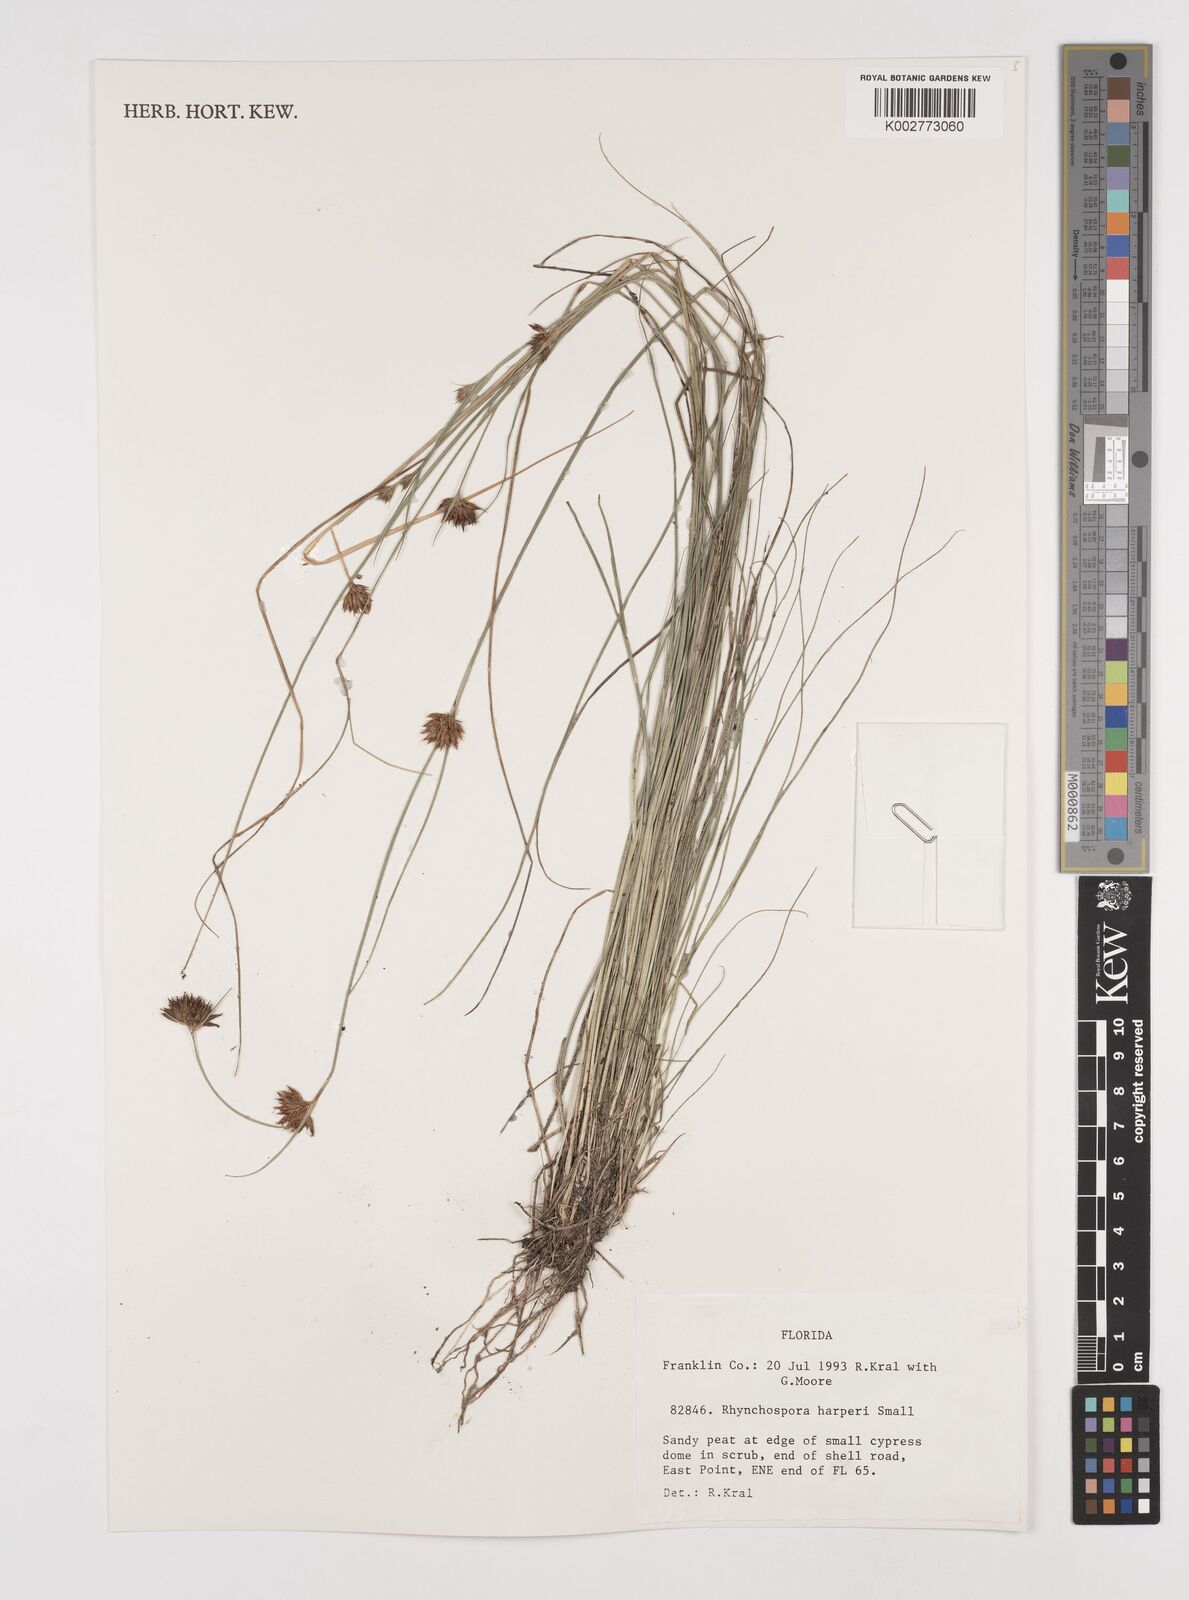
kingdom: Plantae
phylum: Tracheophyta
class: Liliopsida
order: Poales
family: Cyperaceae
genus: Rhynchospora
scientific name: Rhynchospora harperi
